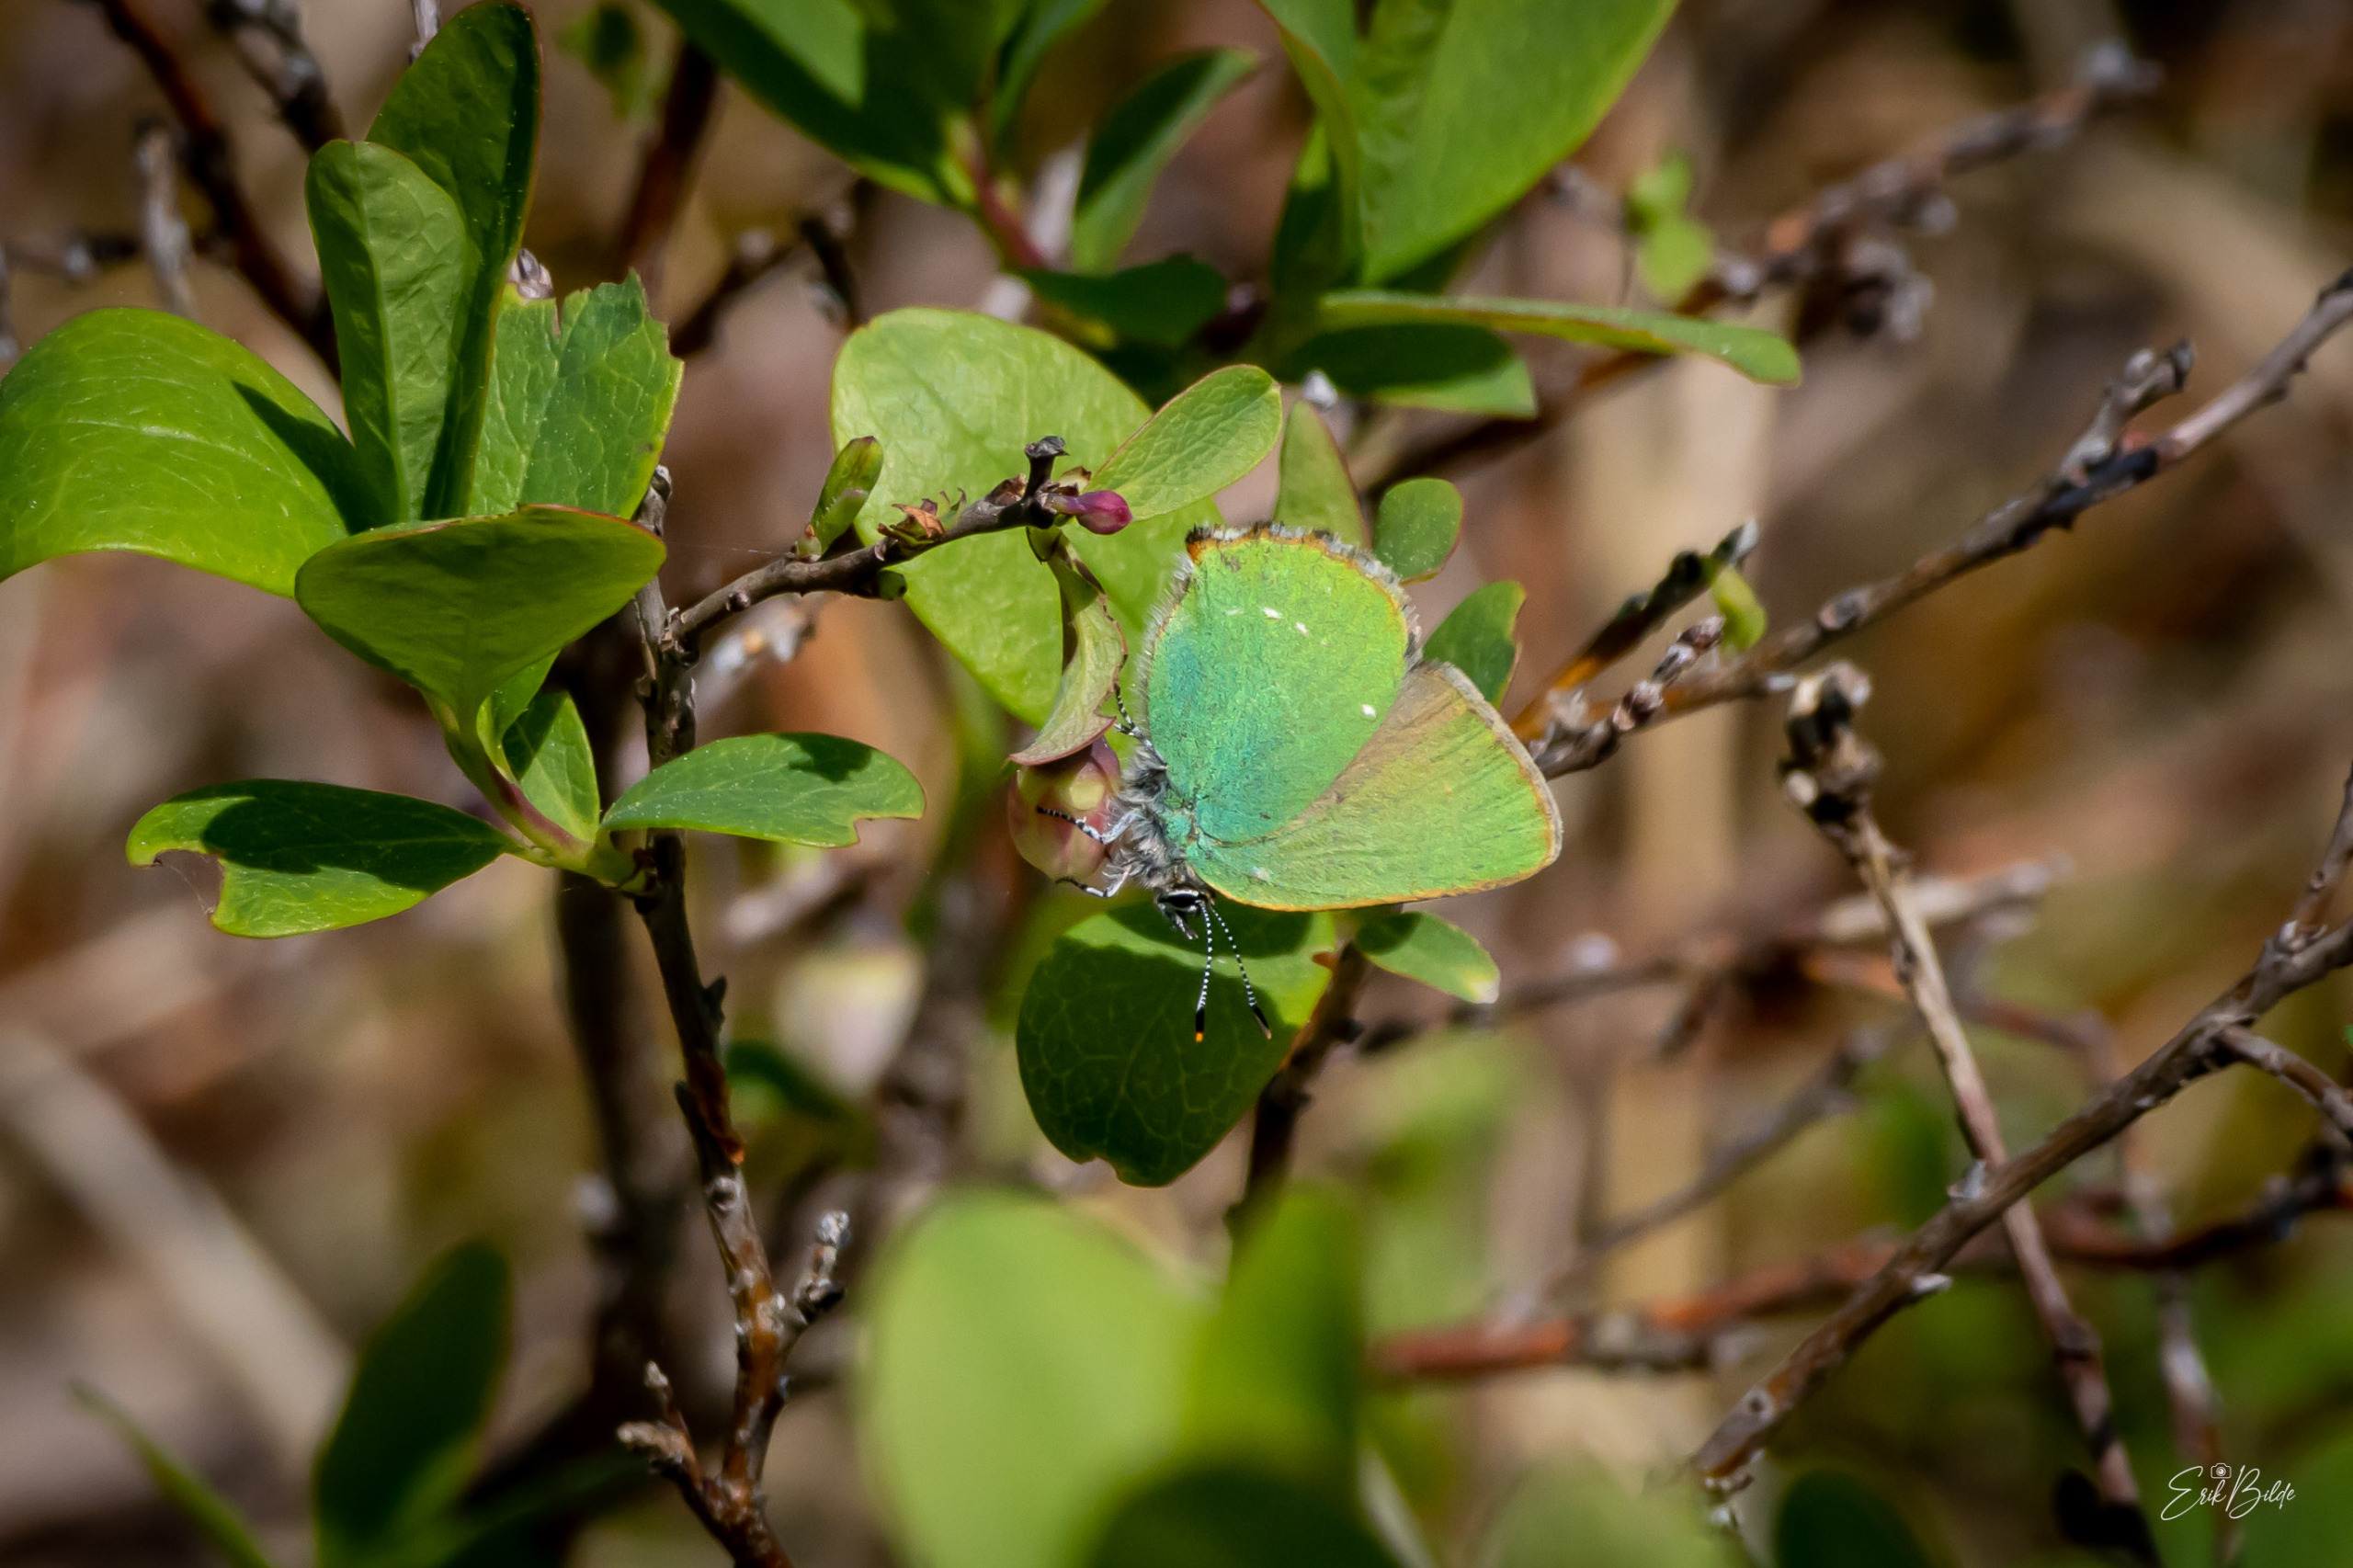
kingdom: Animalia
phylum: Arthropoda
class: Insecta
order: Lepidoptera
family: Lycaenidae
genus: Callophrys
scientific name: Callophrys rubi
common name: Grøn busksommerfugl
